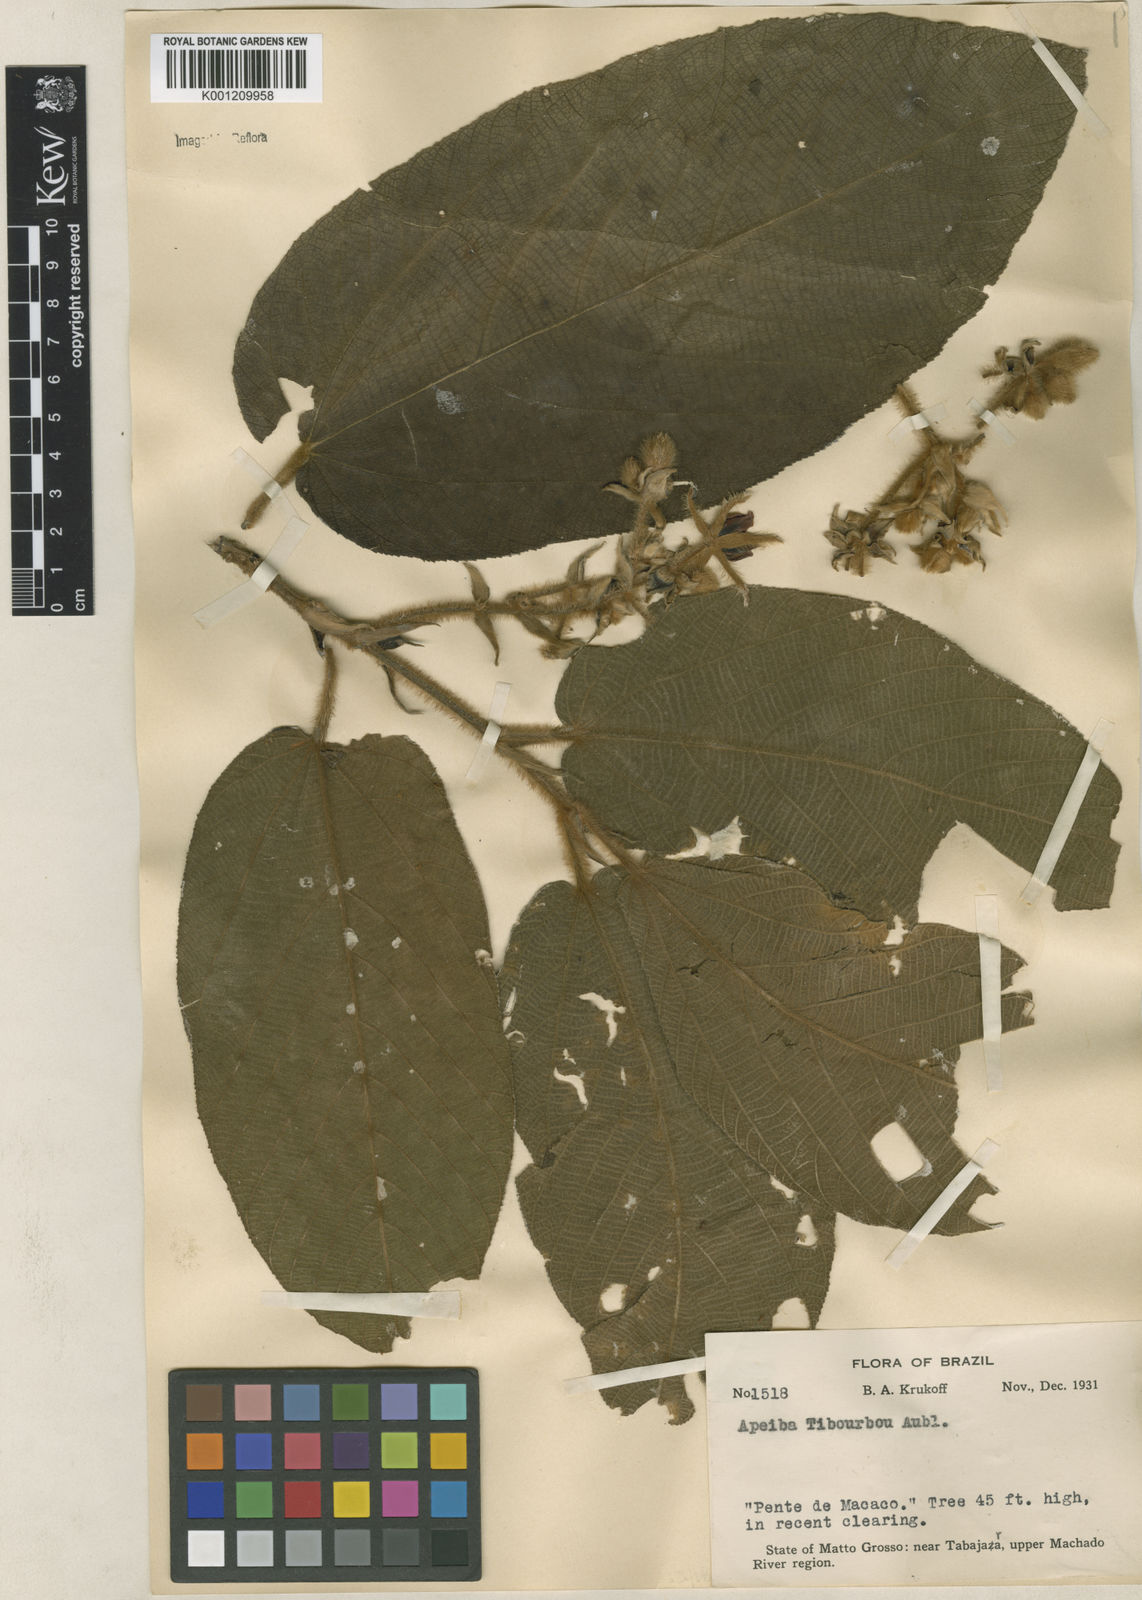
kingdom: Plantae
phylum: Tracheophyta
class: Magnoliopsida
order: Malvales
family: Malvaceae
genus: Apeiba
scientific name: Apeiba tibourbou
